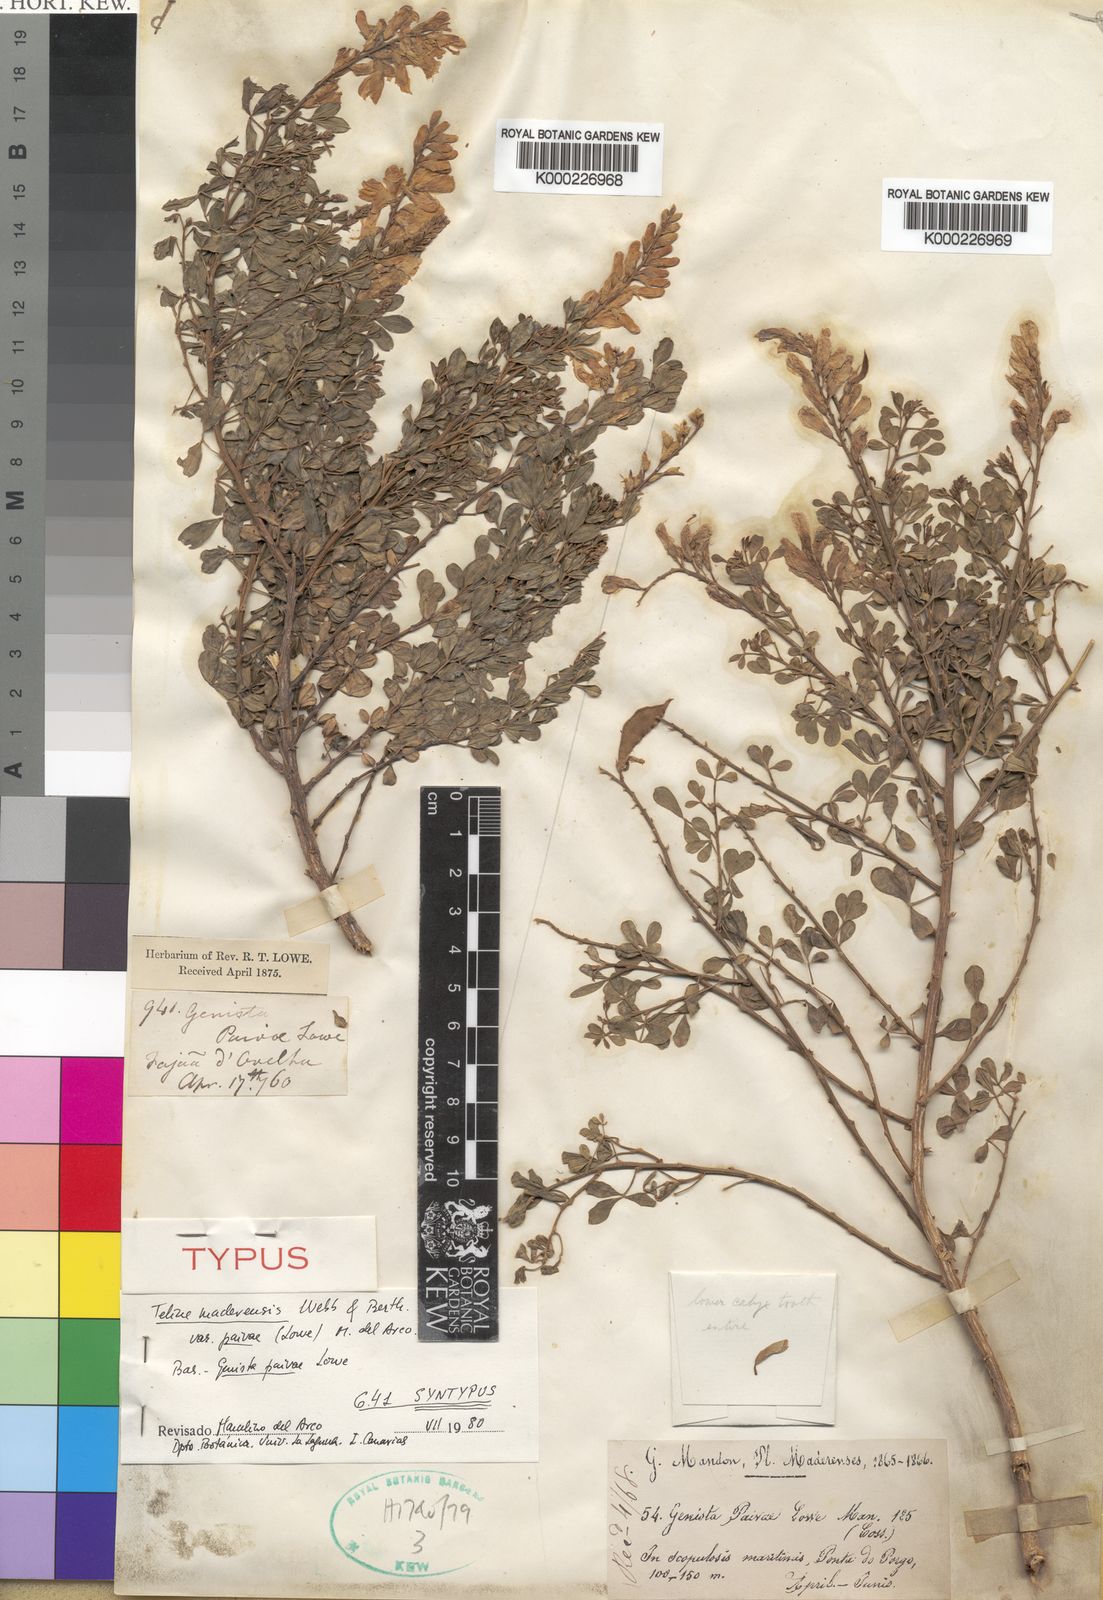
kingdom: Plantae
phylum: Tracheophyta
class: Magnoliopsida
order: Fabales
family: Fabaceae
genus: Genista
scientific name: Genista maderensis
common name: Madeira dyer's greenweed
